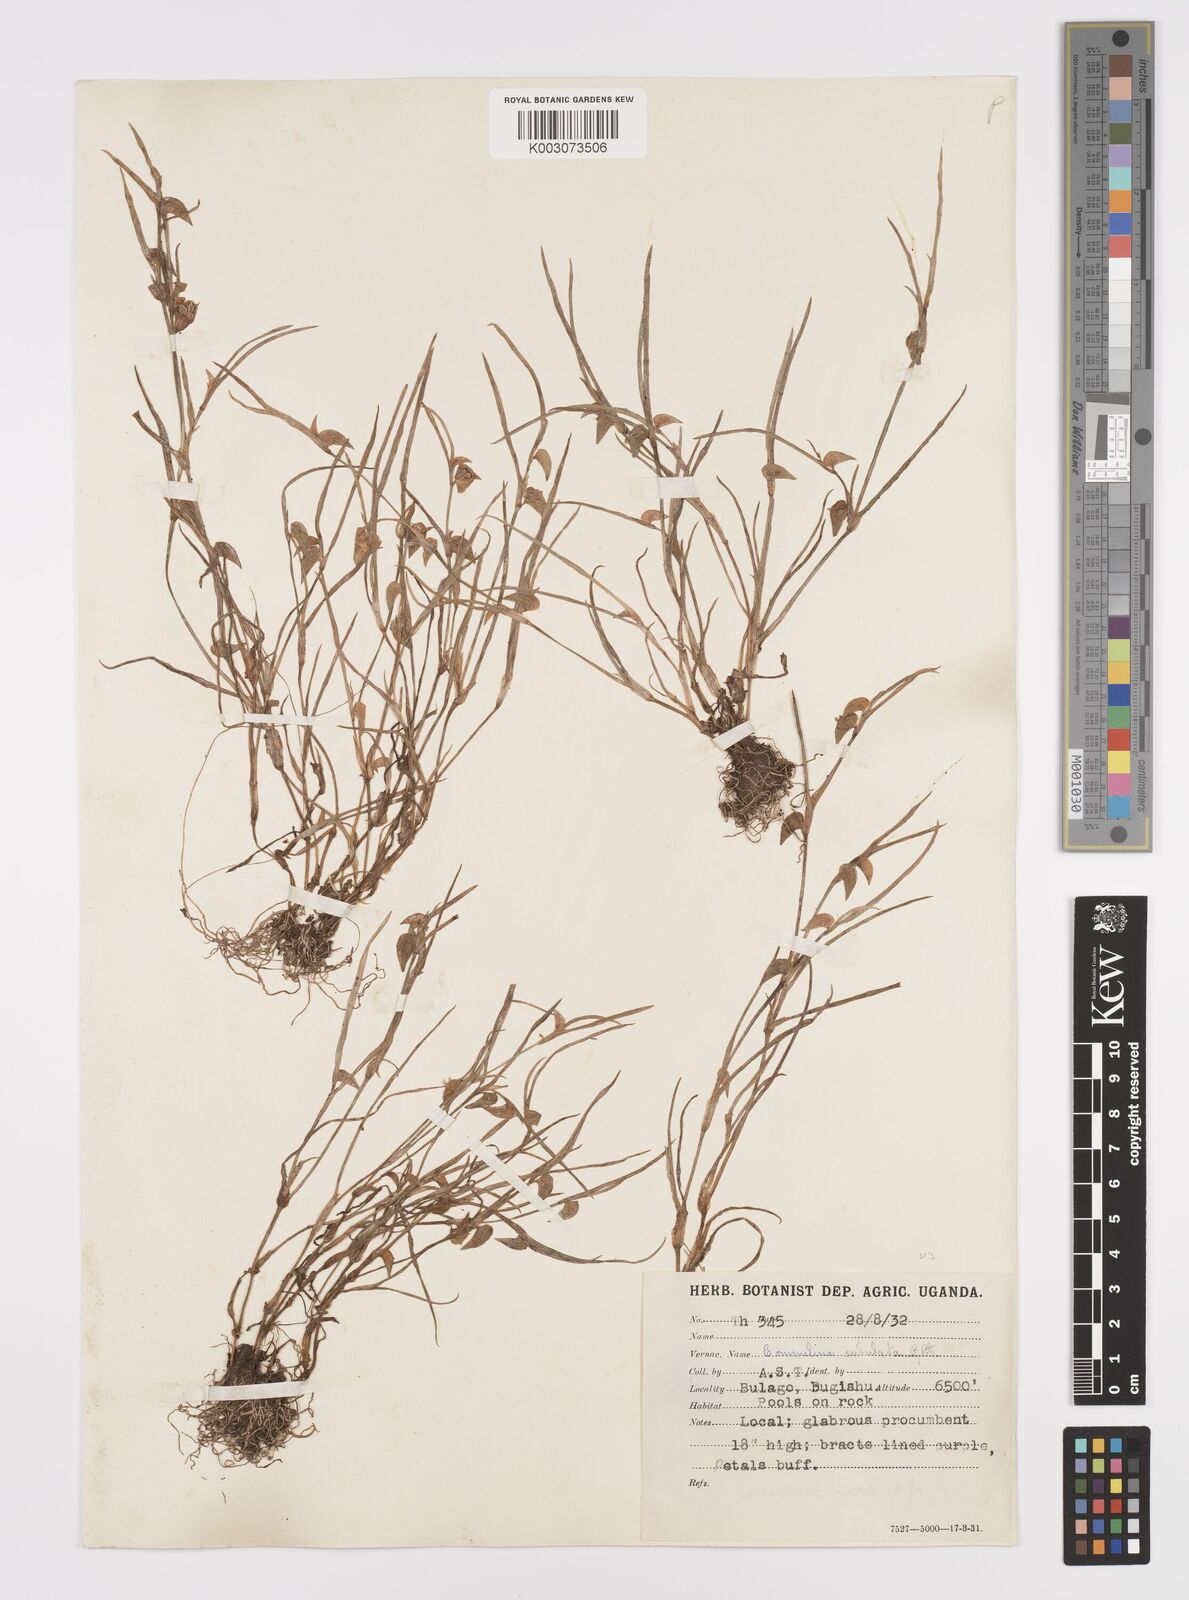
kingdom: Plantae
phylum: Tracheophyta
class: Liliopsida
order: Commelinales
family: Commelinaceae
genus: Commelina
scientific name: Commelina subulata
